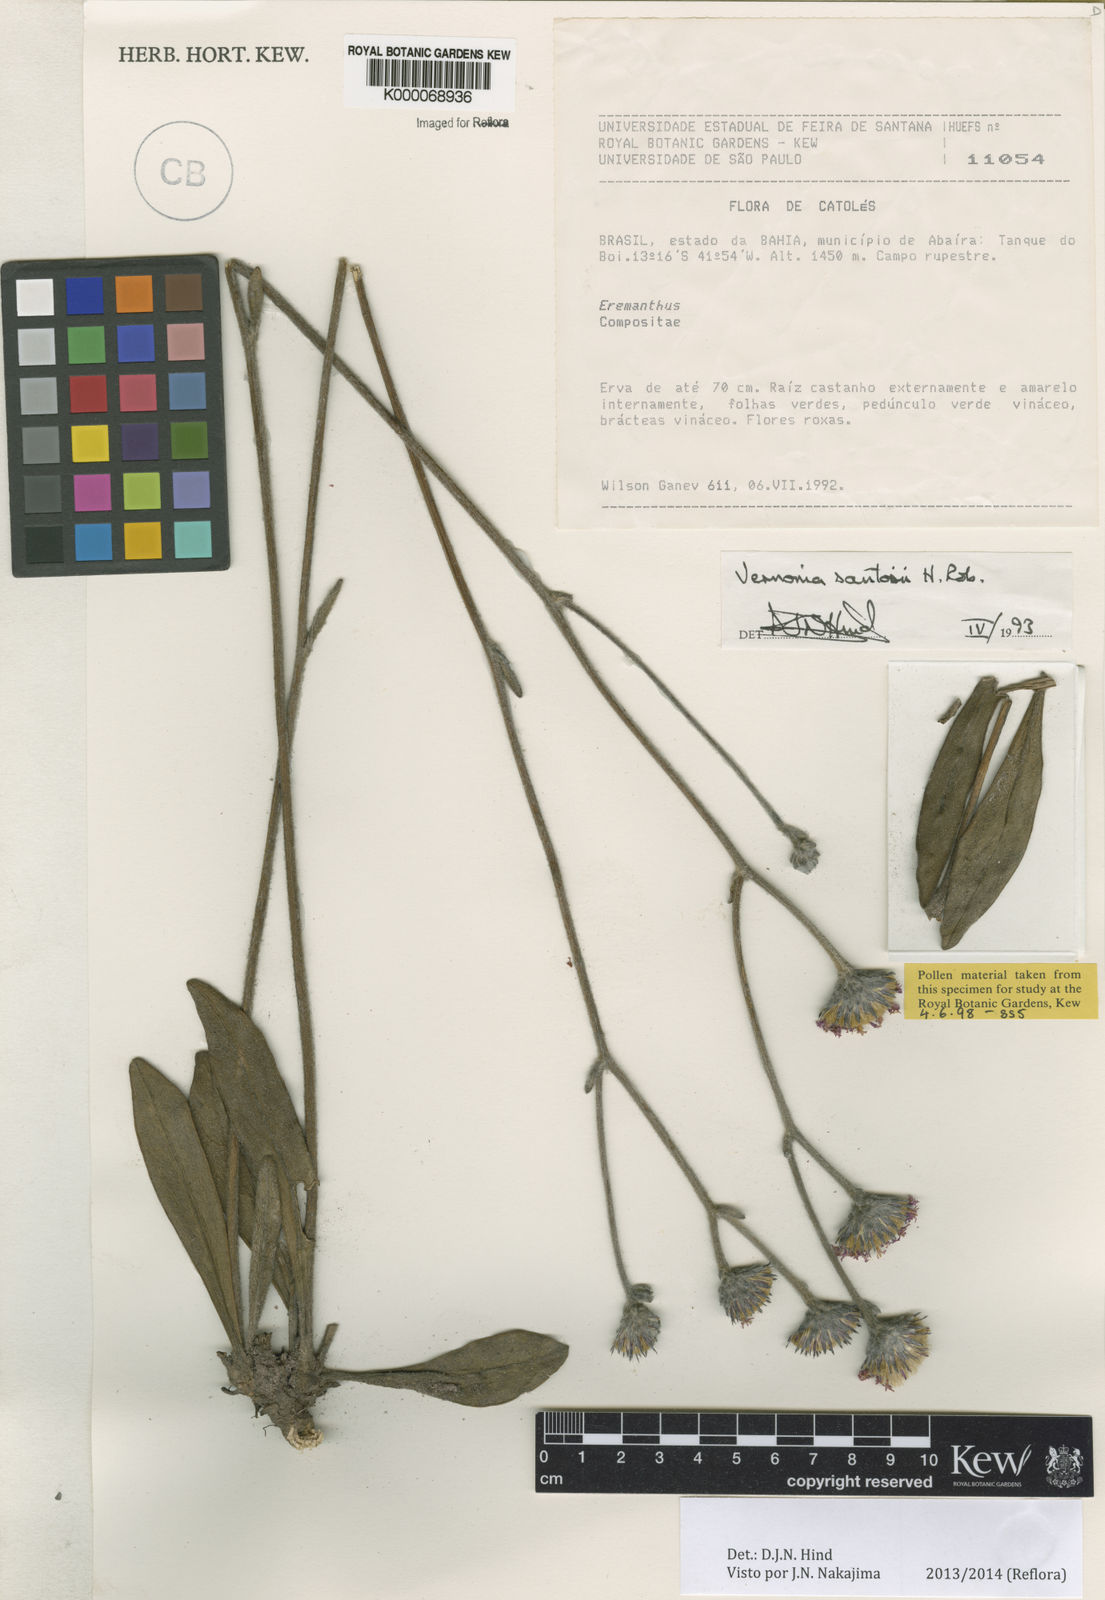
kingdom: Plantae
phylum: Tracheophyta
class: Magnoliopsida
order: Asterales
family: Asteraceae
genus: Lessingianthus
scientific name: Lessingianthus santosii
